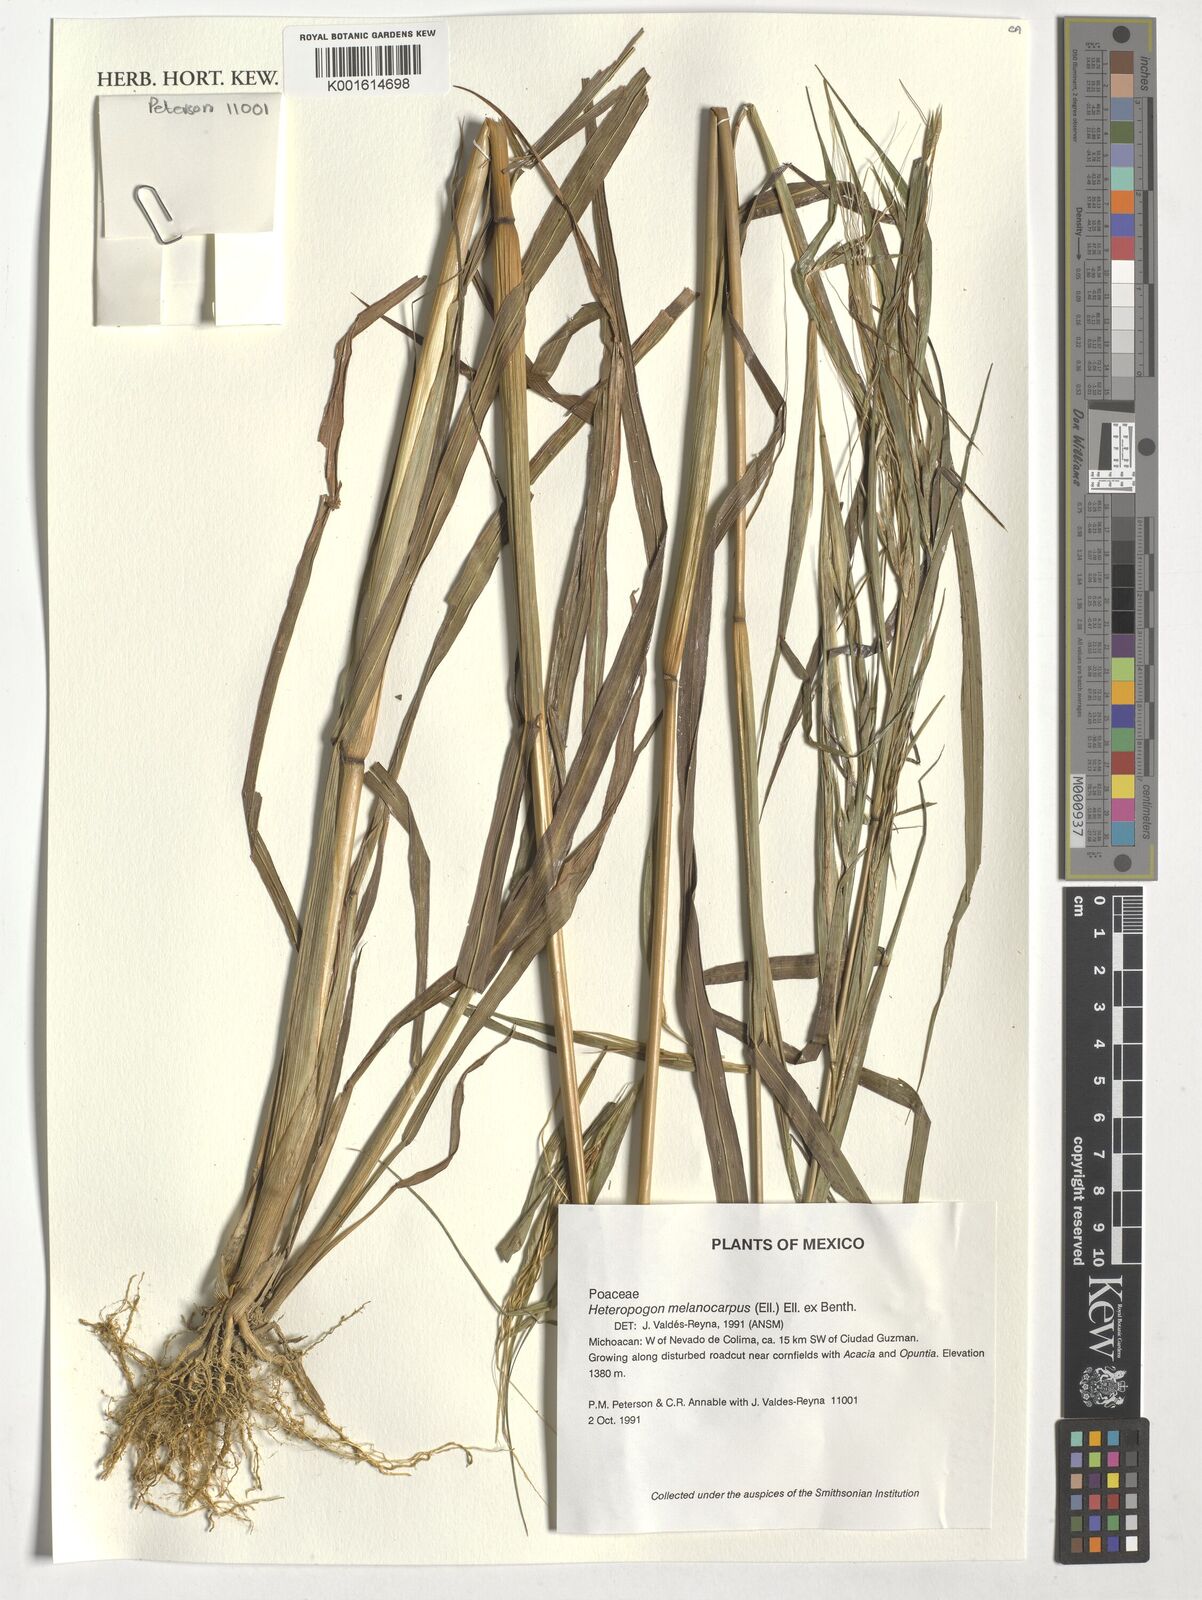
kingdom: Plantae
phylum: Tracheophyta
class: Liliopsida
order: Poales
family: Poaceae
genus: Heteropogon
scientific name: Heteropogon melanocarpus
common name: Sweet tanglehead
